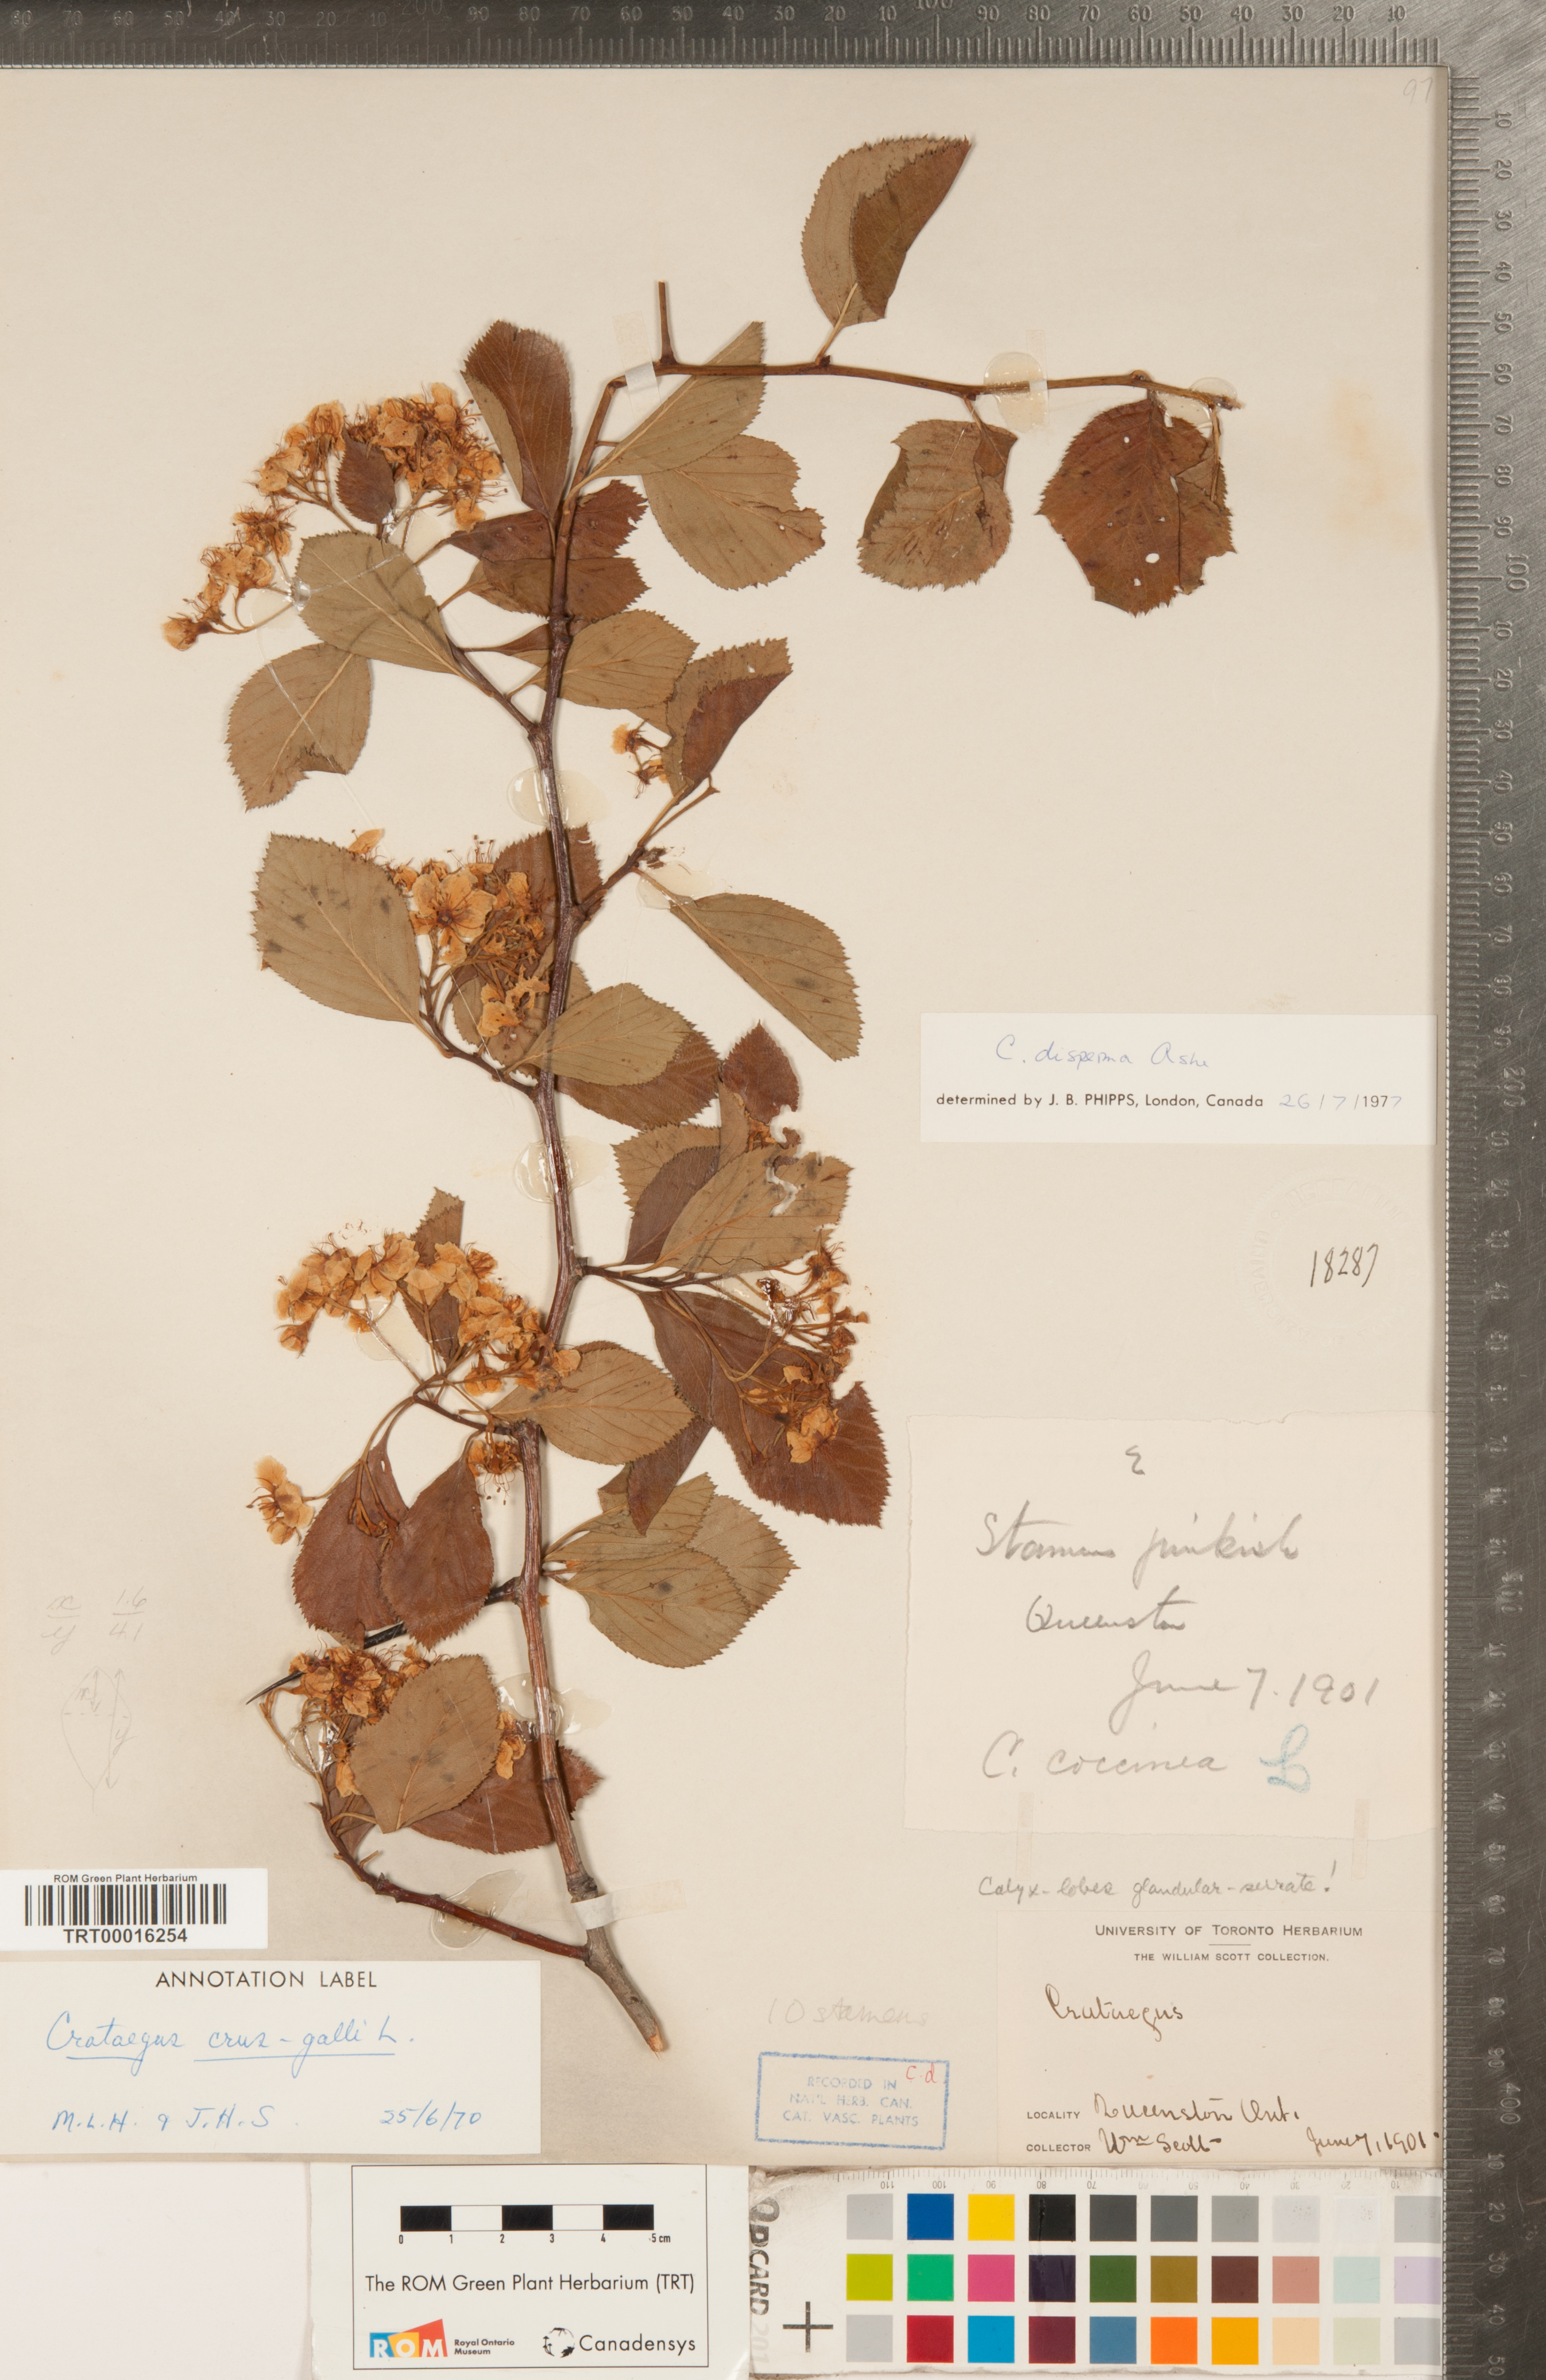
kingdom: Plantae
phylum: Tracheophyta
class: Magnoliopsida
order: Rosales
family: Rosaceae
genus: Crataegus
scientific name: Crataegus disperma
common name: Spreading hawthorn
